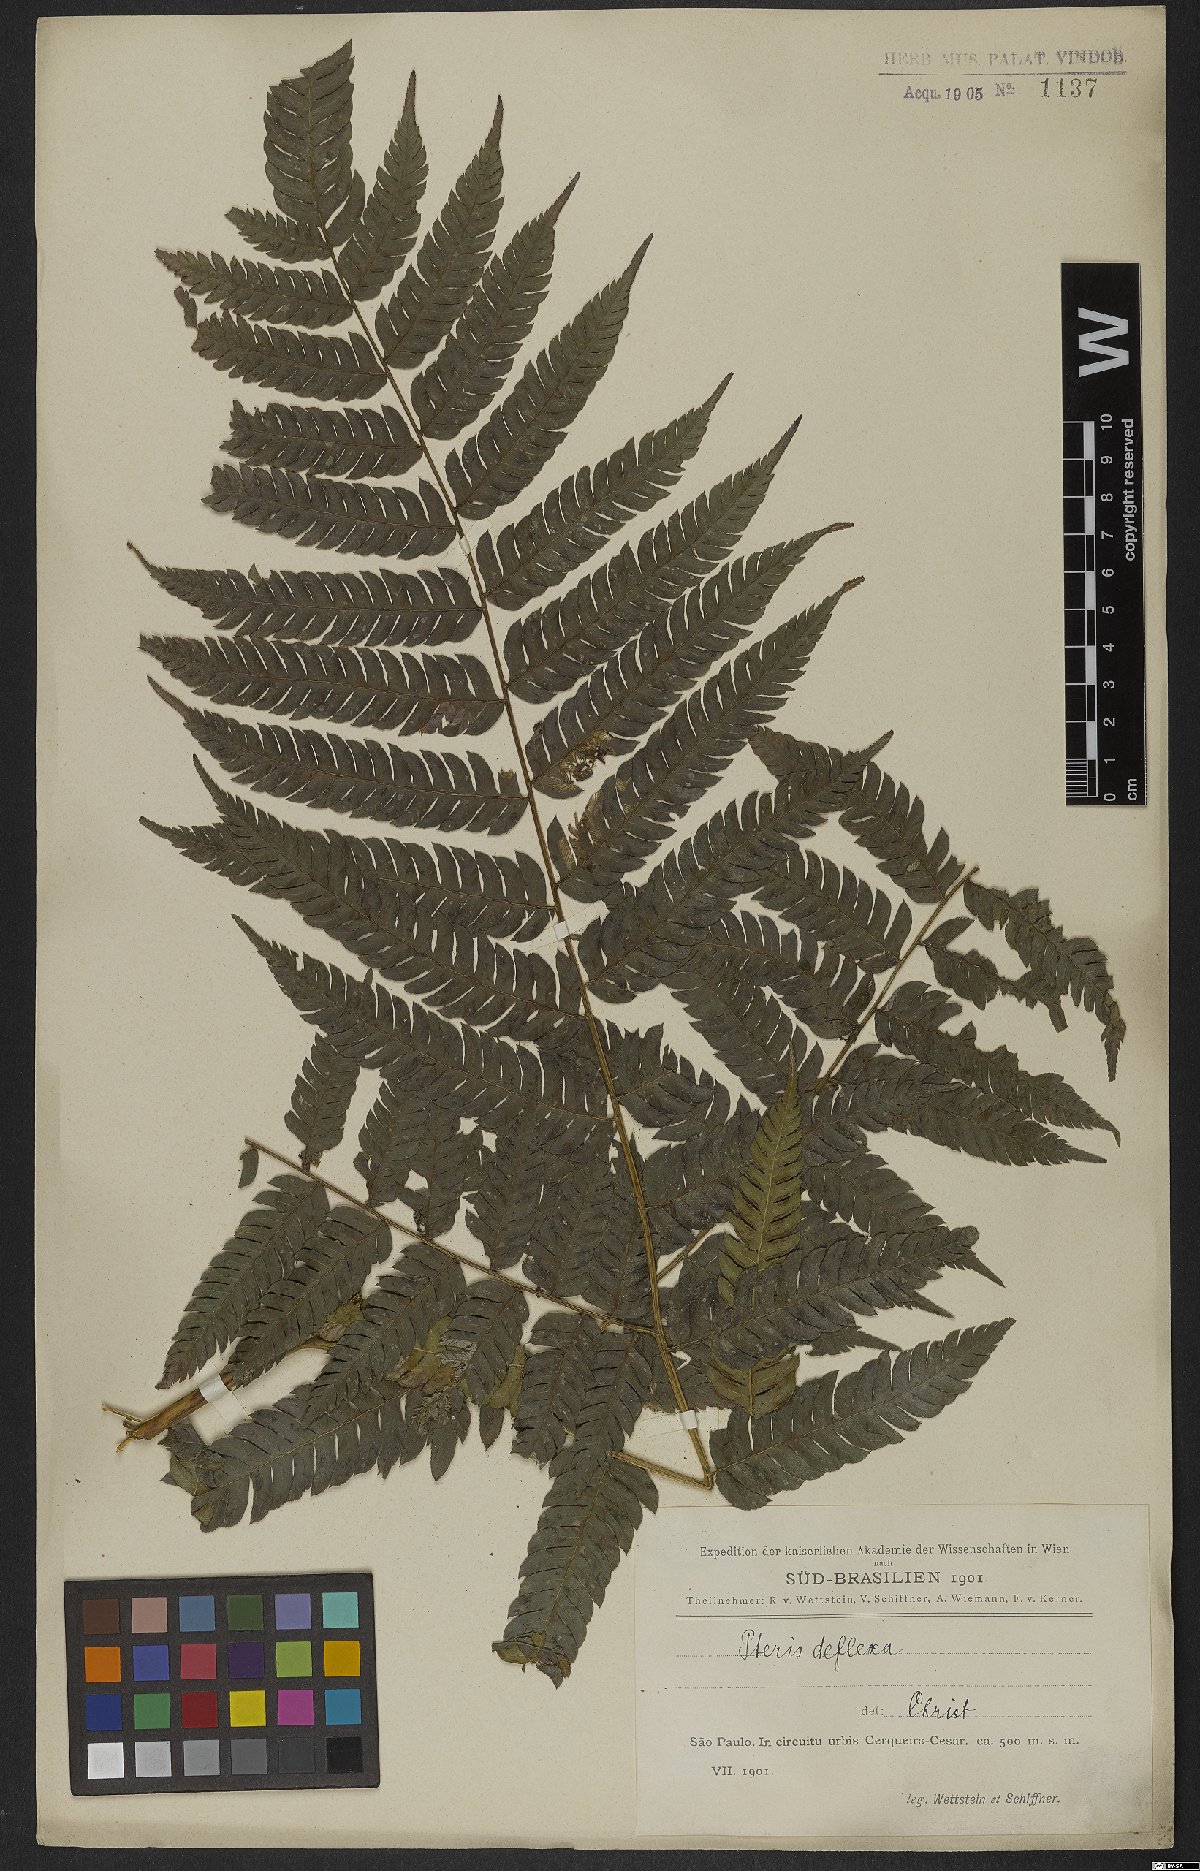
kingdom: Plantae
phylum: Tracheophyta
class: Polypodiopsida
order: Polypodiales
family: Pteridaceae
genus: Pteris
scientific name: Pteris deflexa
